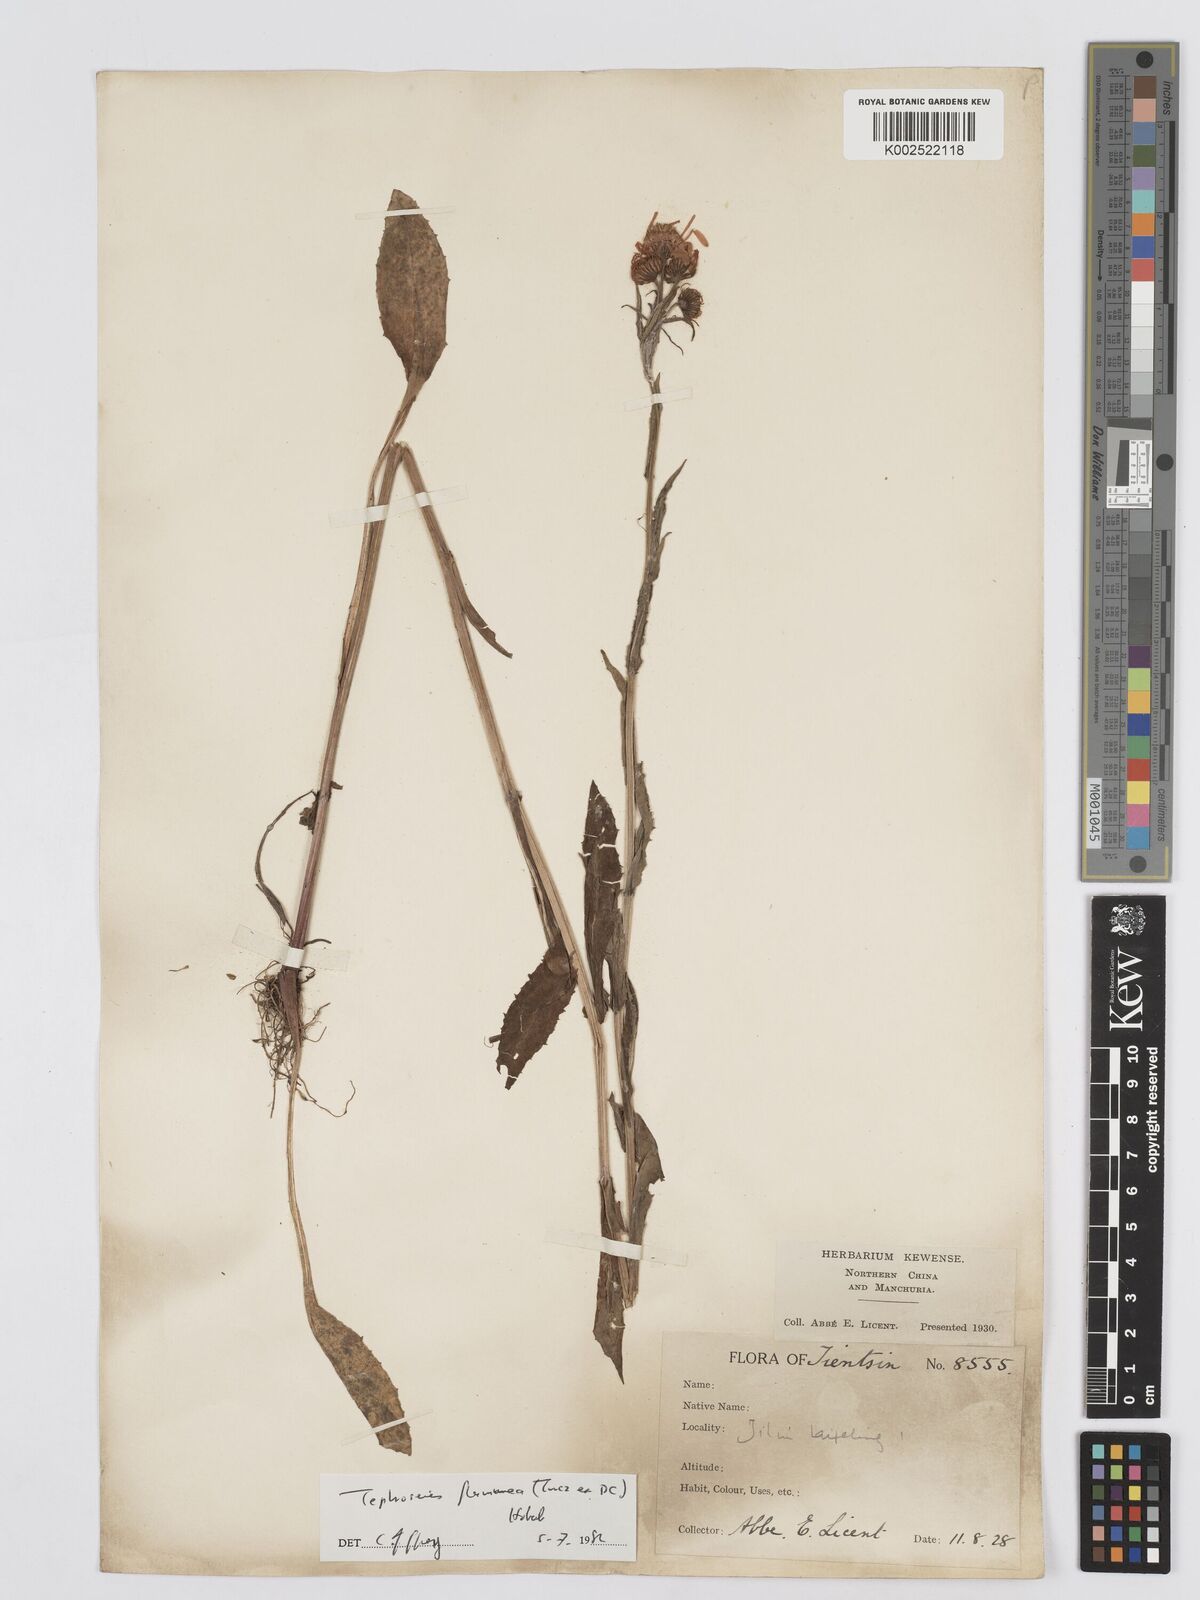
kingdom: Plantae
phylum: Tracheophyta
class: Magnoliopsida
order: Asterales
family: Asteraceae
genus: Tephroseris
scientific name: Tephroseris flammea
